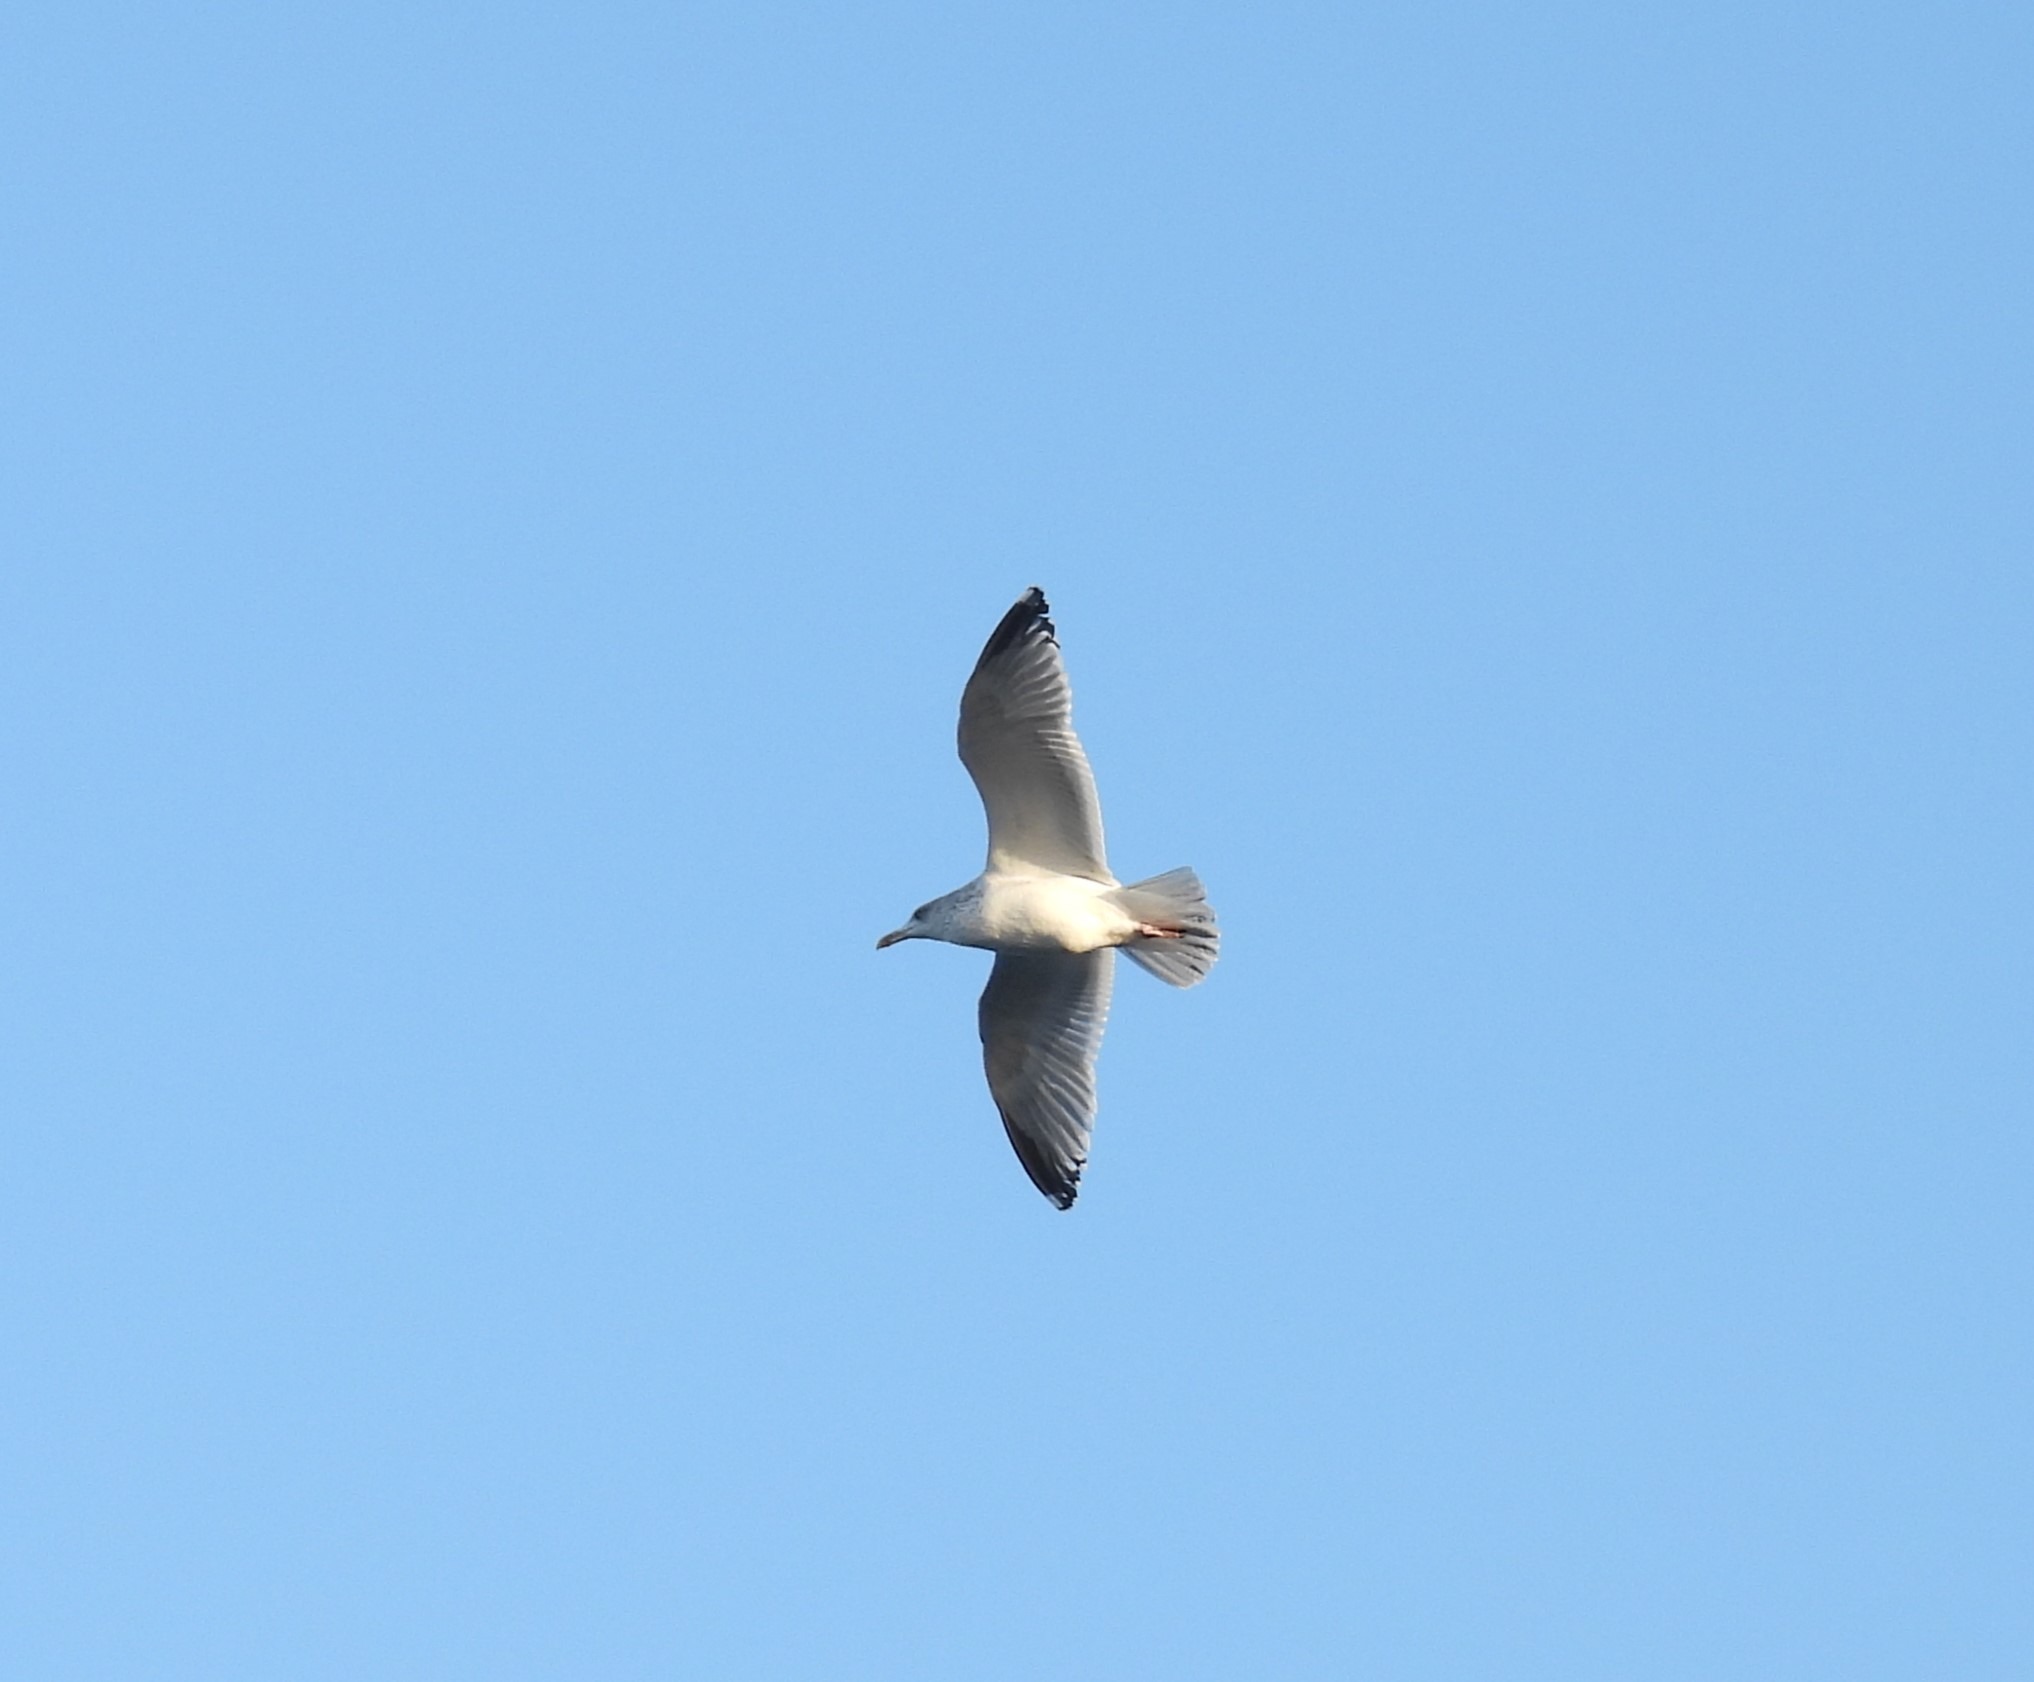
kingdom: Animalia
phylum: Chordata
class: Aves
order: Charadriiformes
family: Laridae
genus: Larus
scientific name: Larus argentatus
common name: Sølvmåge
